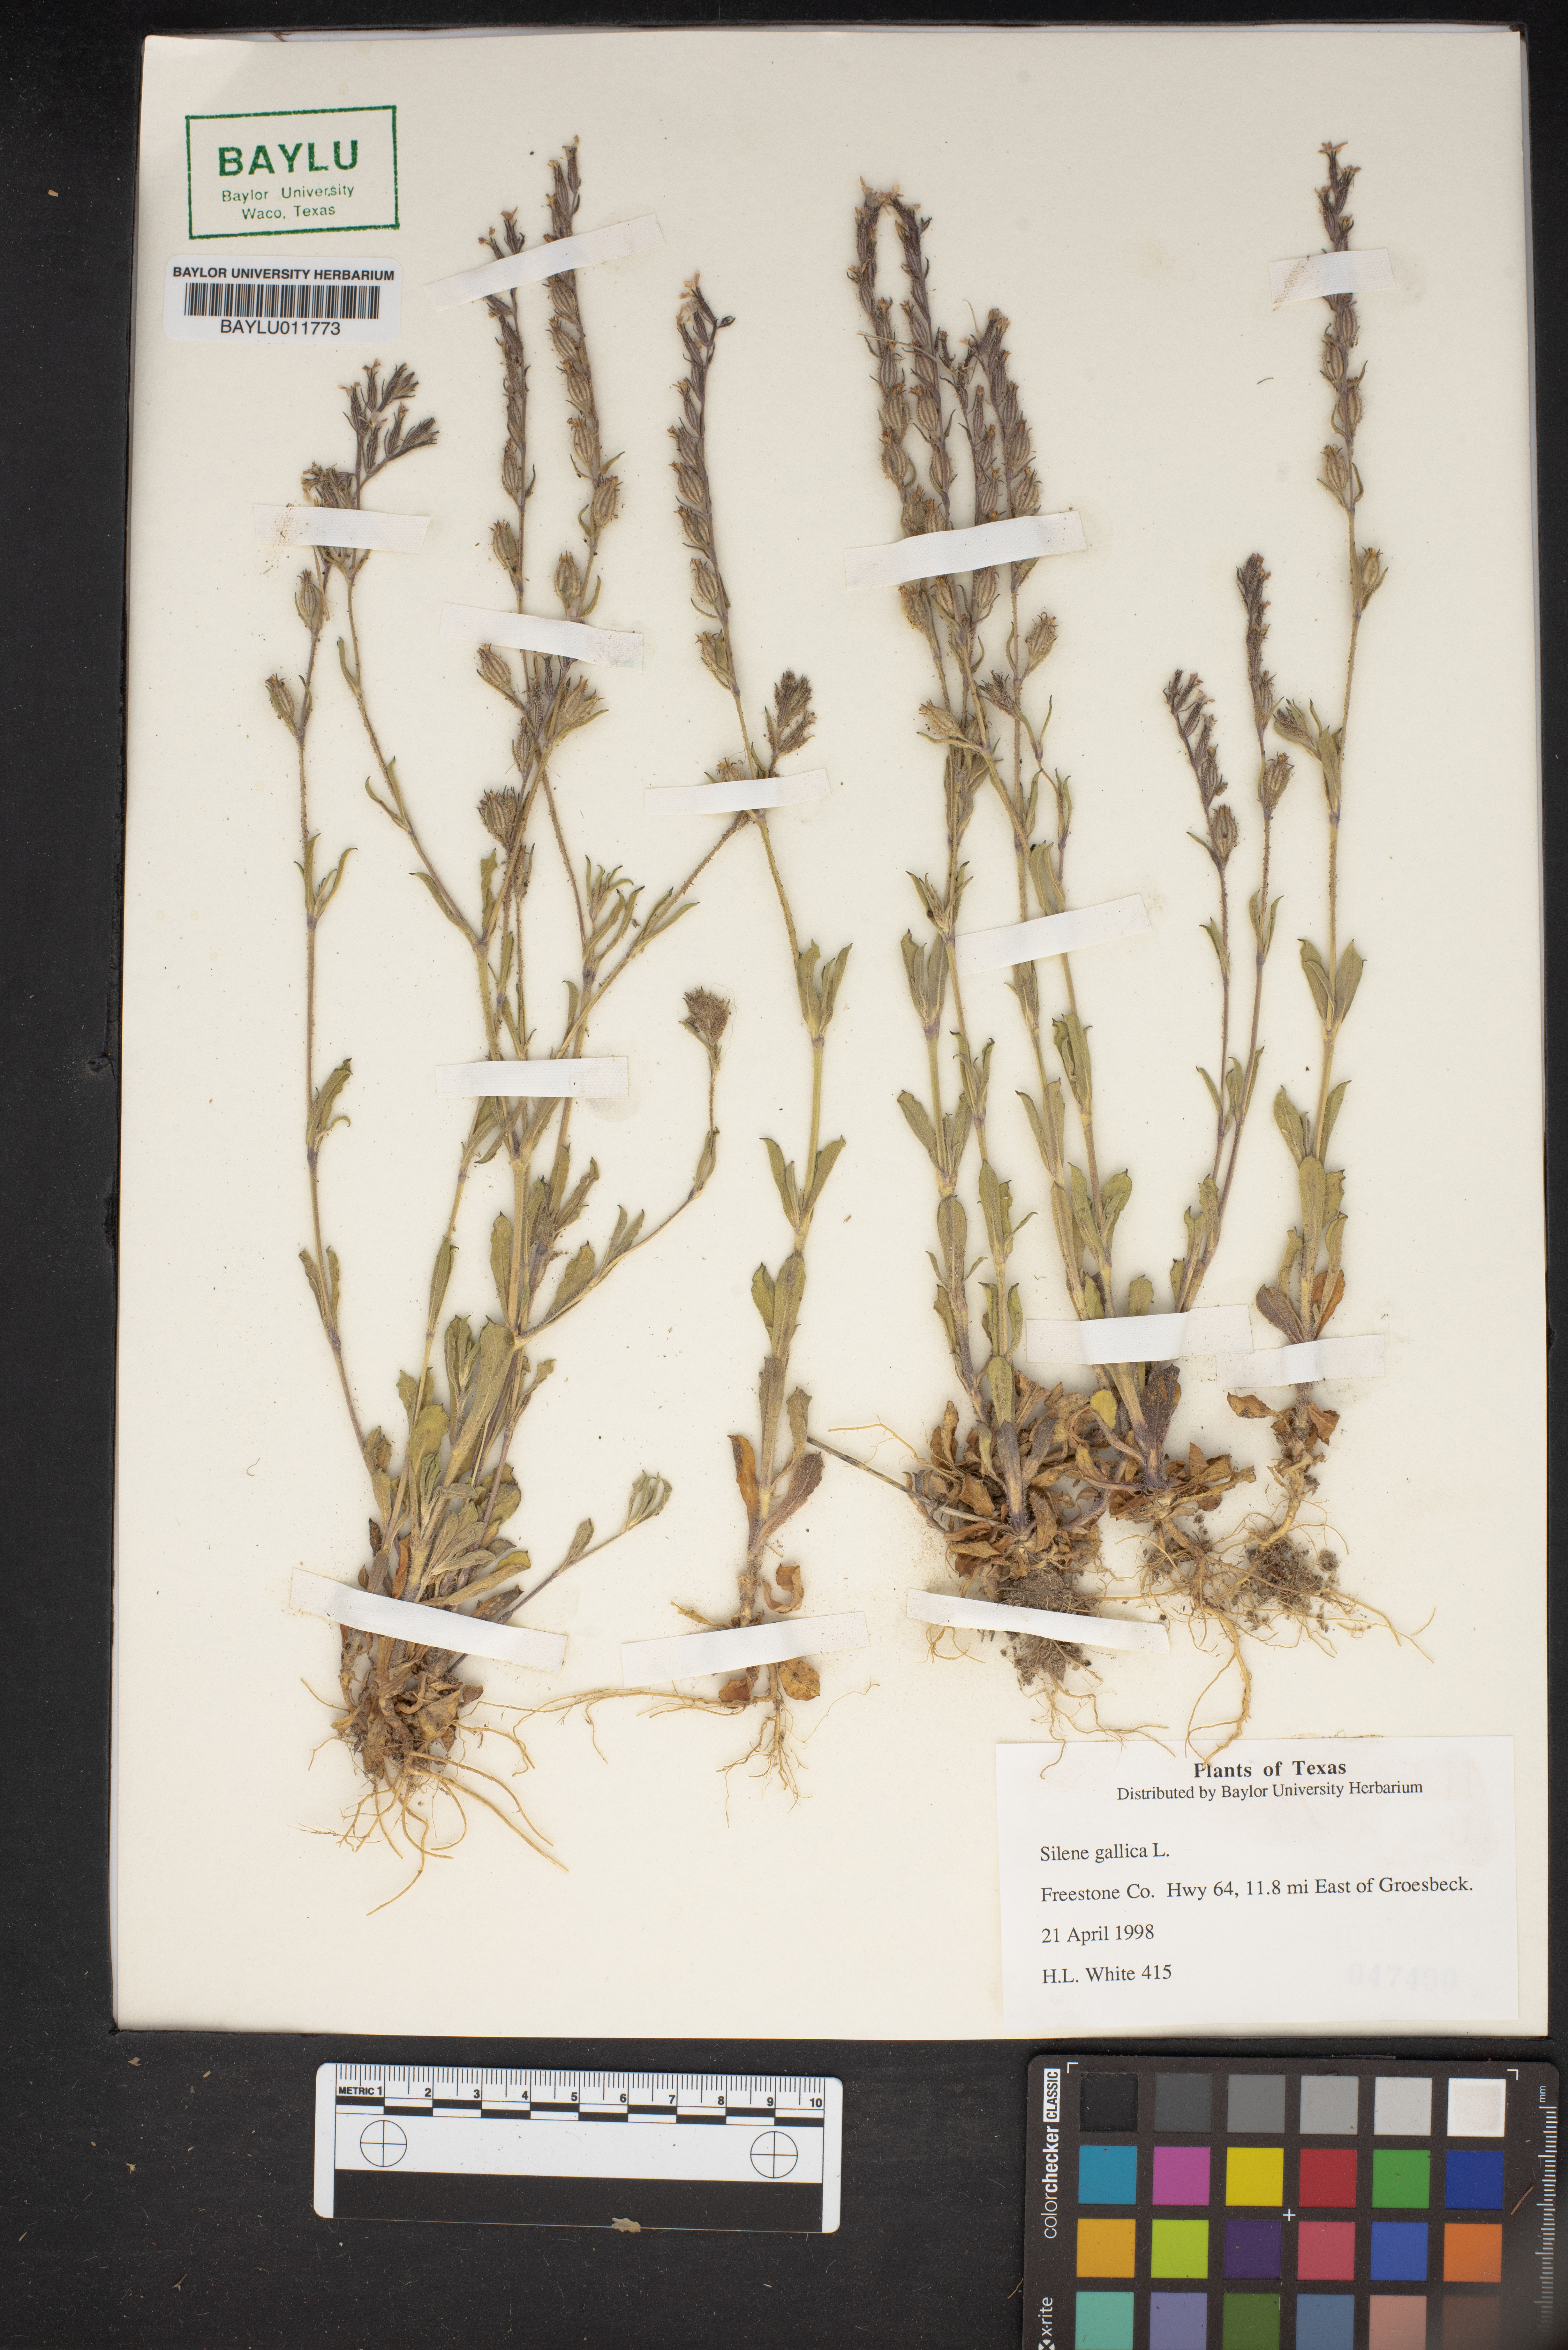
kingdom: Plantae
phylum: Tracheophyta
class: Magnoliopsida
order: Caryophyllales
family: Caryophyllaceae
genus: Silene
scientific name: Silene gallica
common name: Small-flowered catchfly
